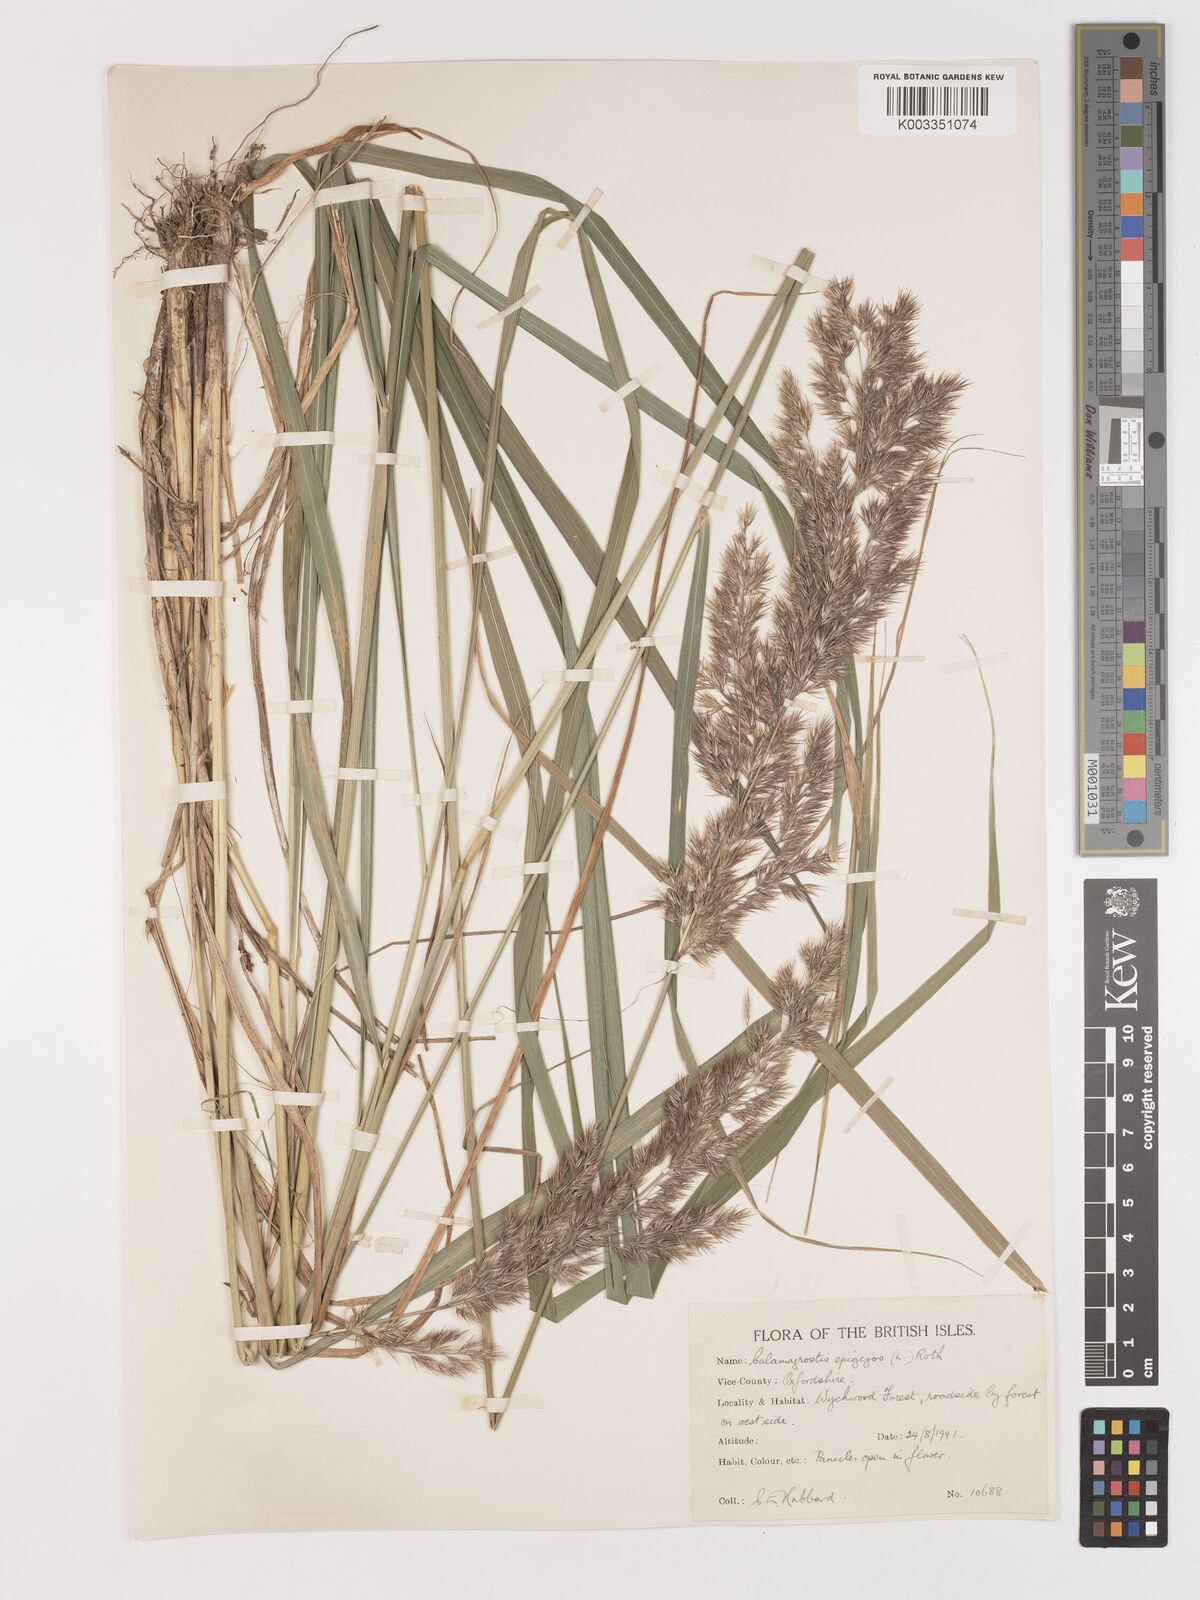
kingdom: Plantae
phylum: Tracheophyta
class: Liliopsida
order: Poales
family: Poaceae
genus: Calamagrostis
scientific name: Calamagrostis epigejos
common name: Wood small-reed
